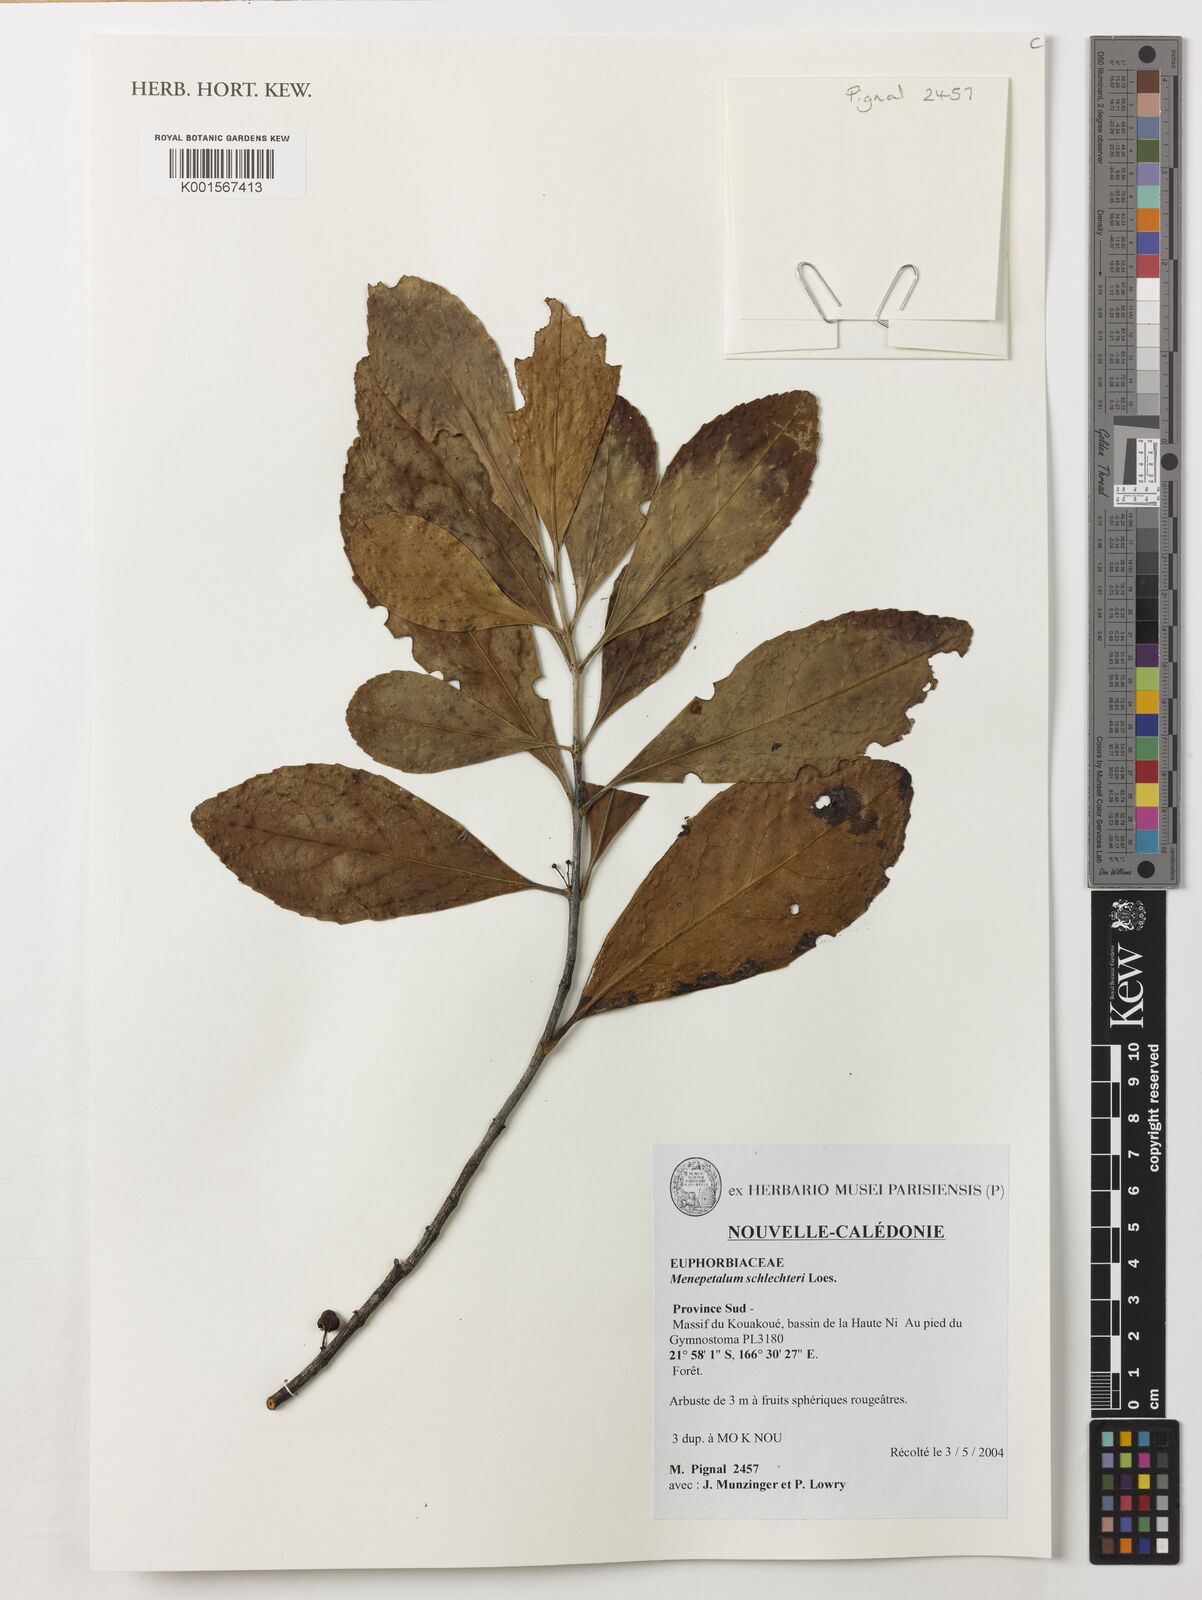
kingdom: Plantae
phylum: Tracheophyta
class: Magnoliopsida
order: Celastrales
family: Celastraceae
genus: Menepetalum
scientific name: Menepetalum schlechteri
